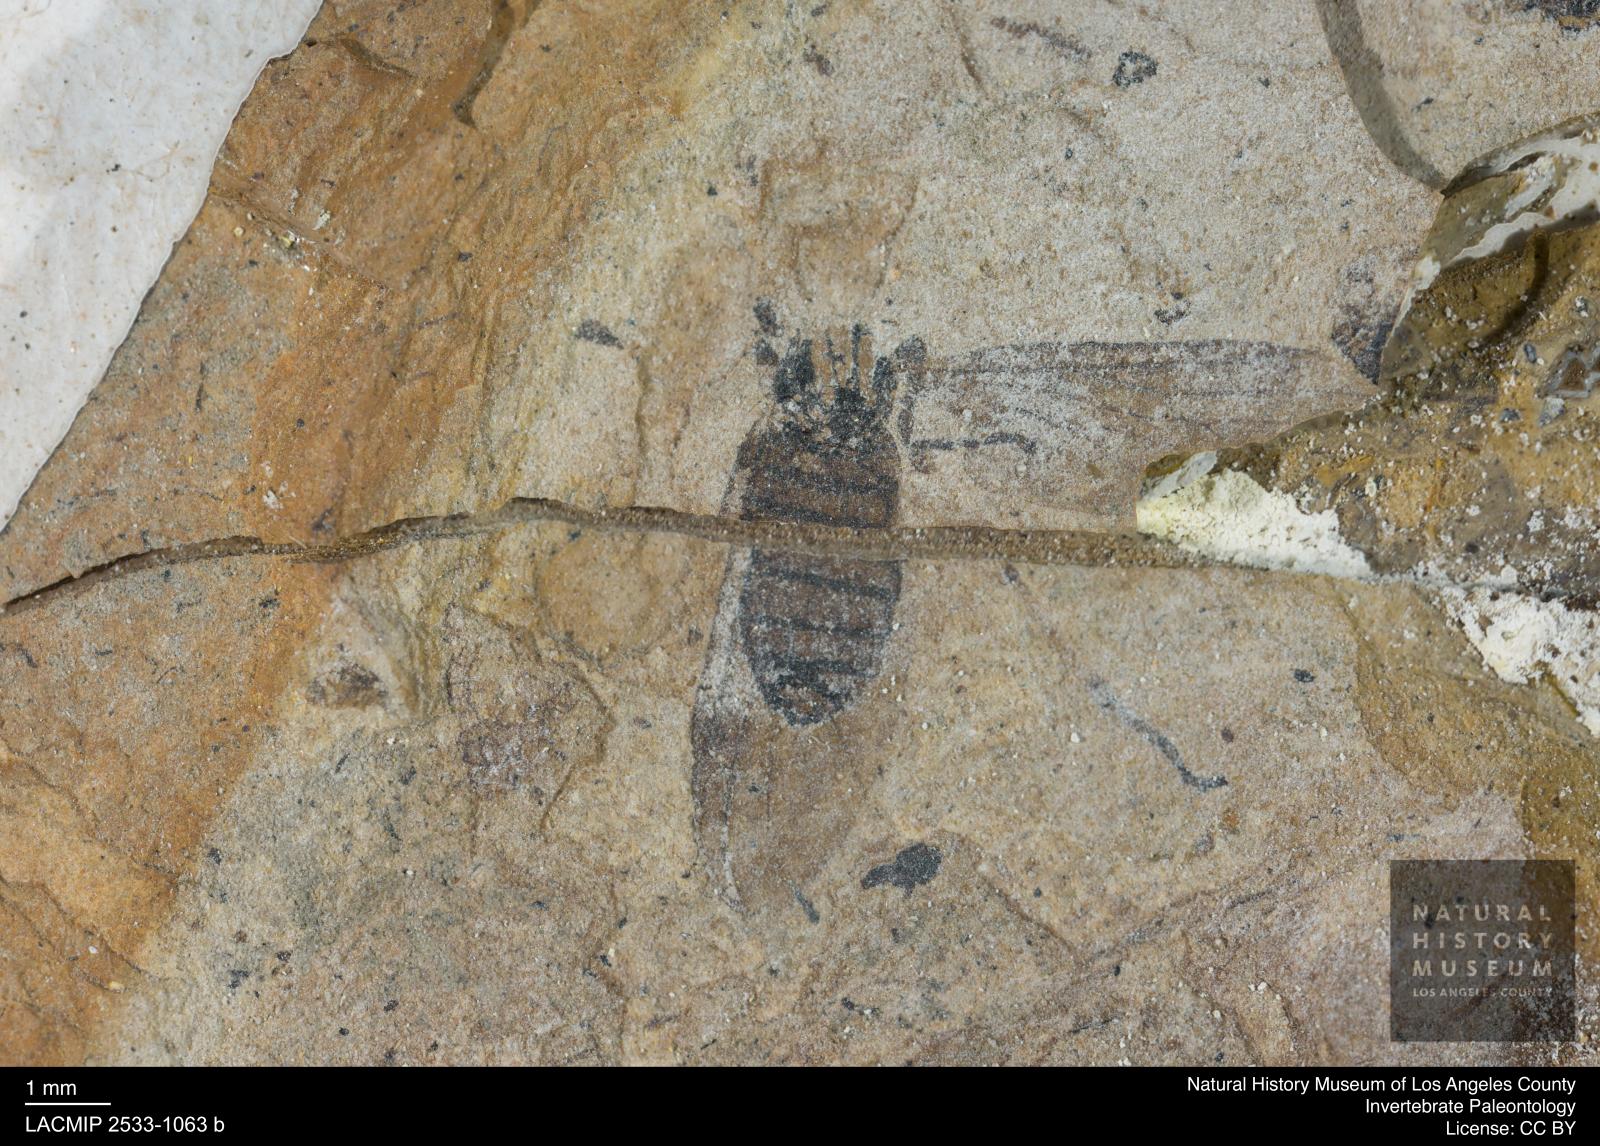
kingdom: Animalia
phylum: Arthropoda
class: Insecta
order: Diptera
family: Bibionidae
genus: Plecia
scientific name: Plecia stygia
